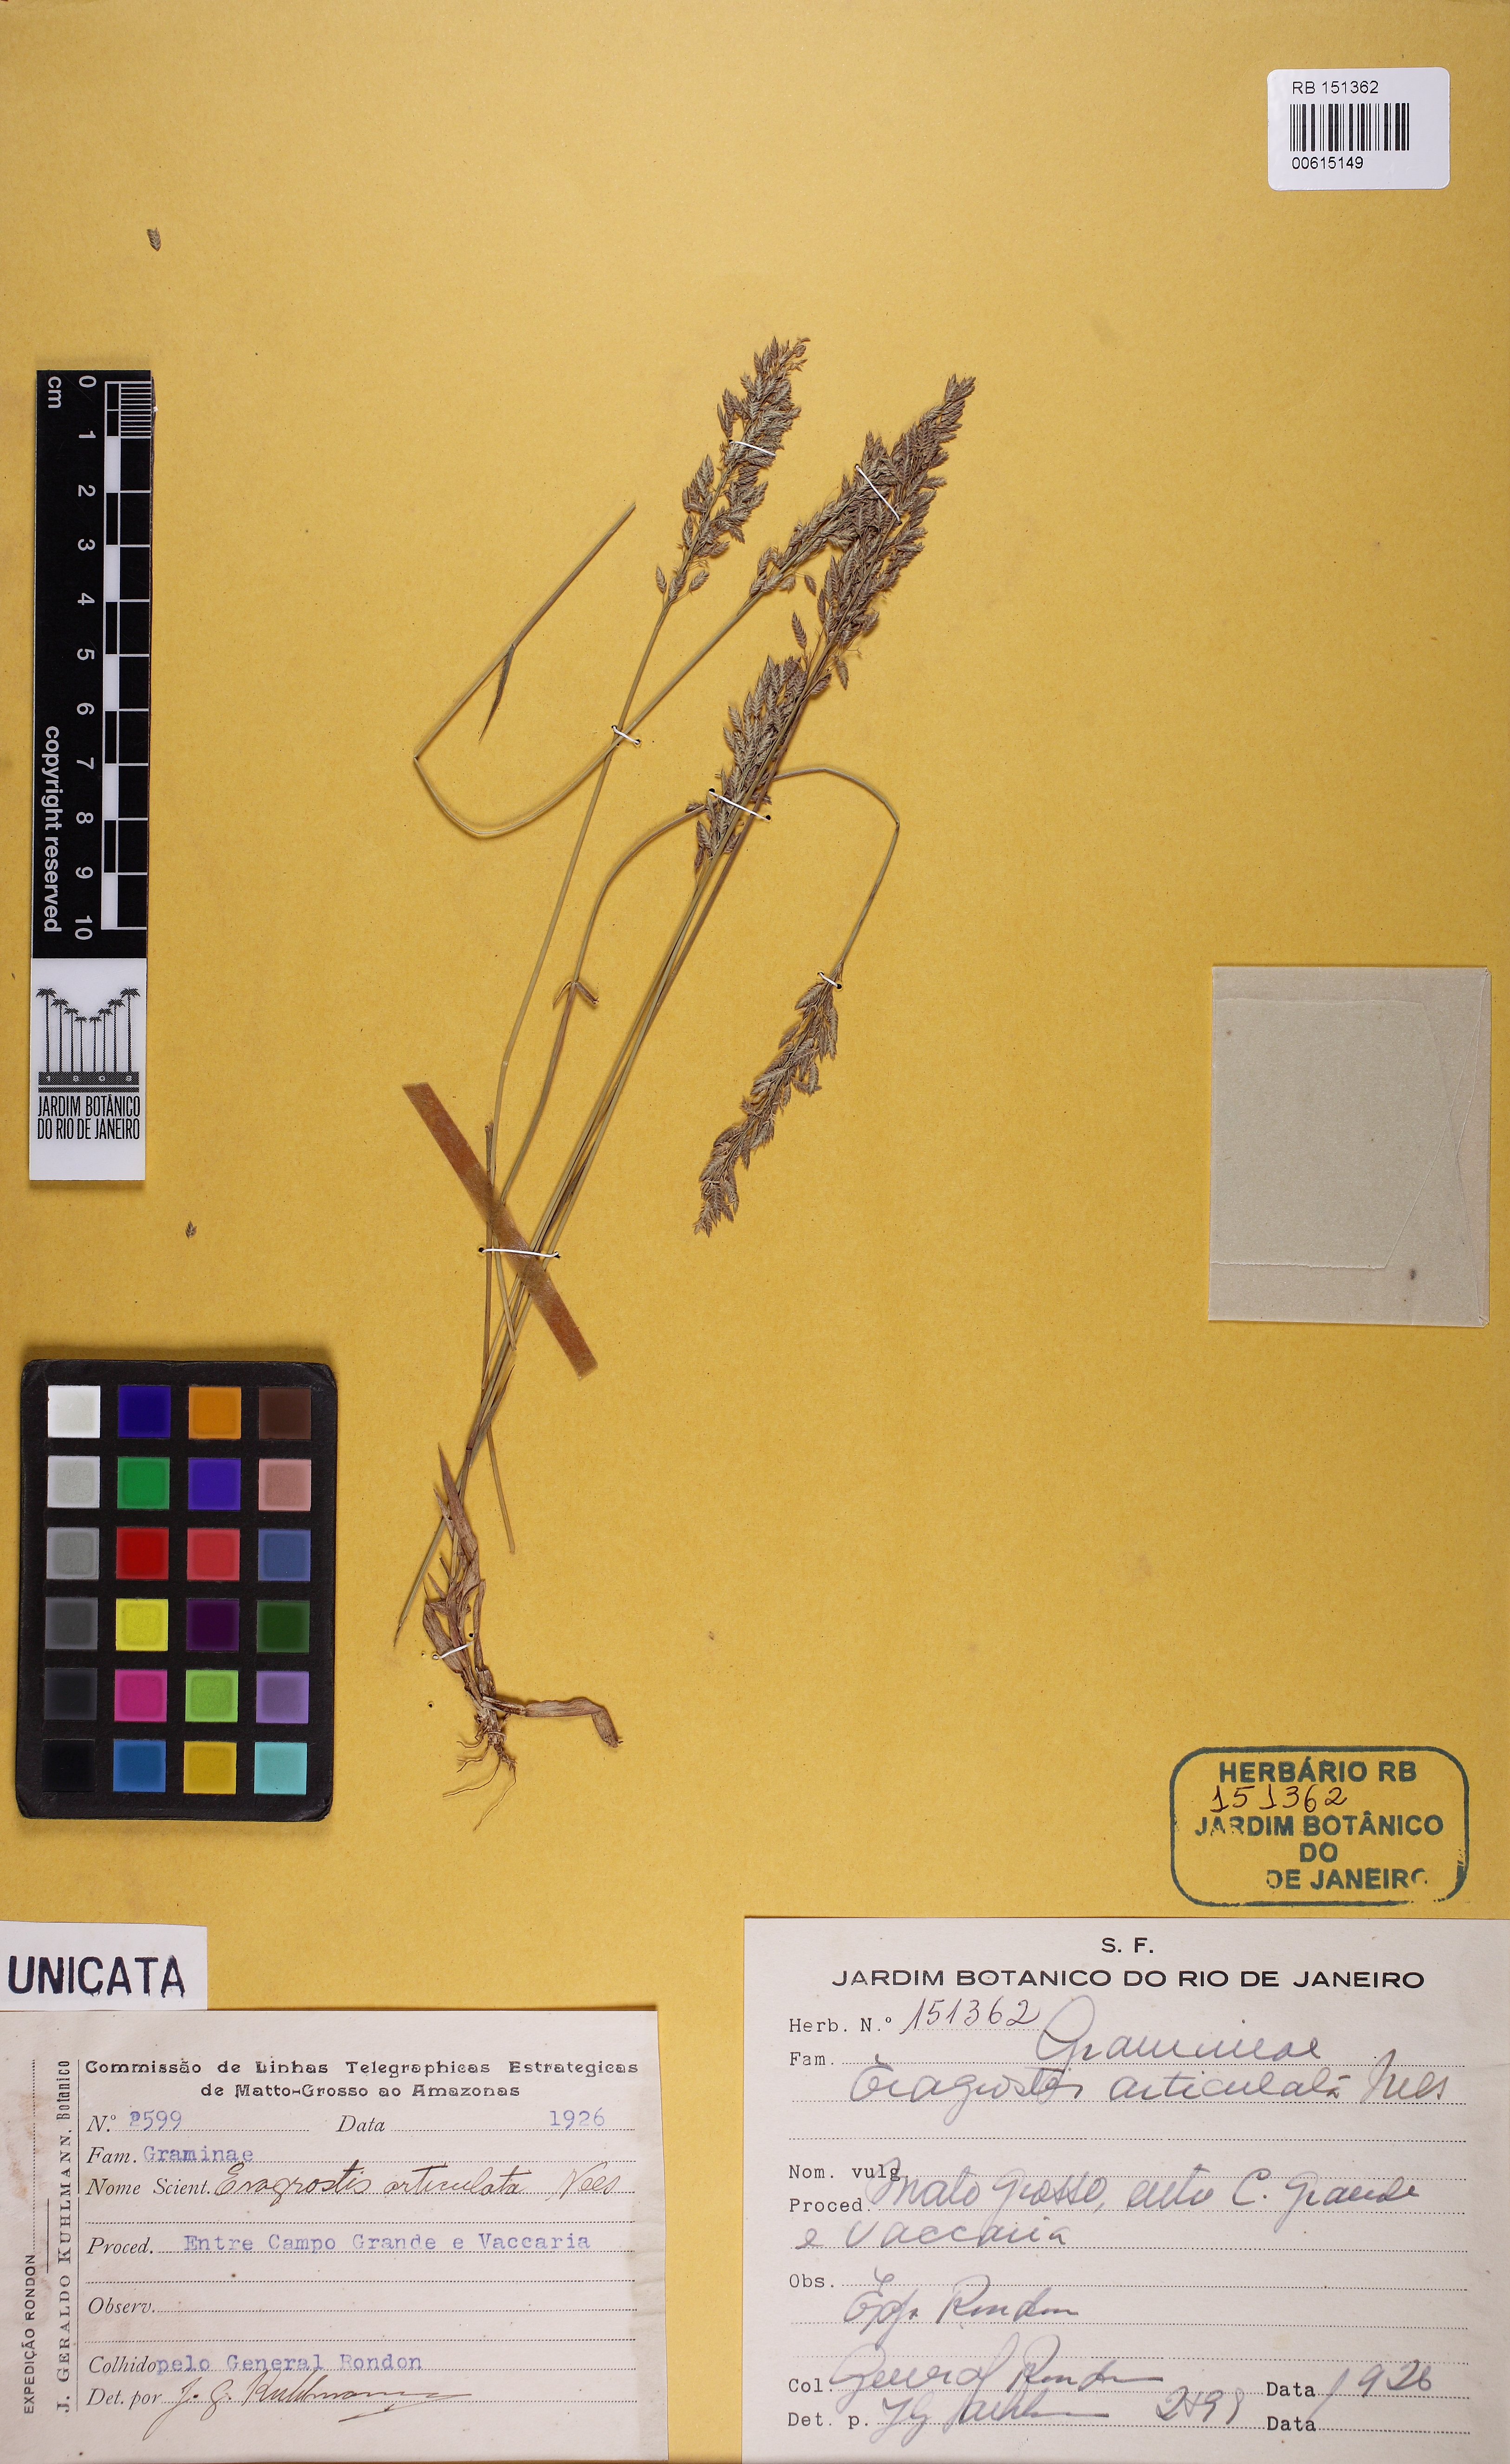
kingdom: Plantae
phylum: Tracheophyta
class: Liliopsida
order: Poales
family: Poaceae
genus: Eragrostis
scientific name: Eragrostis articulata
